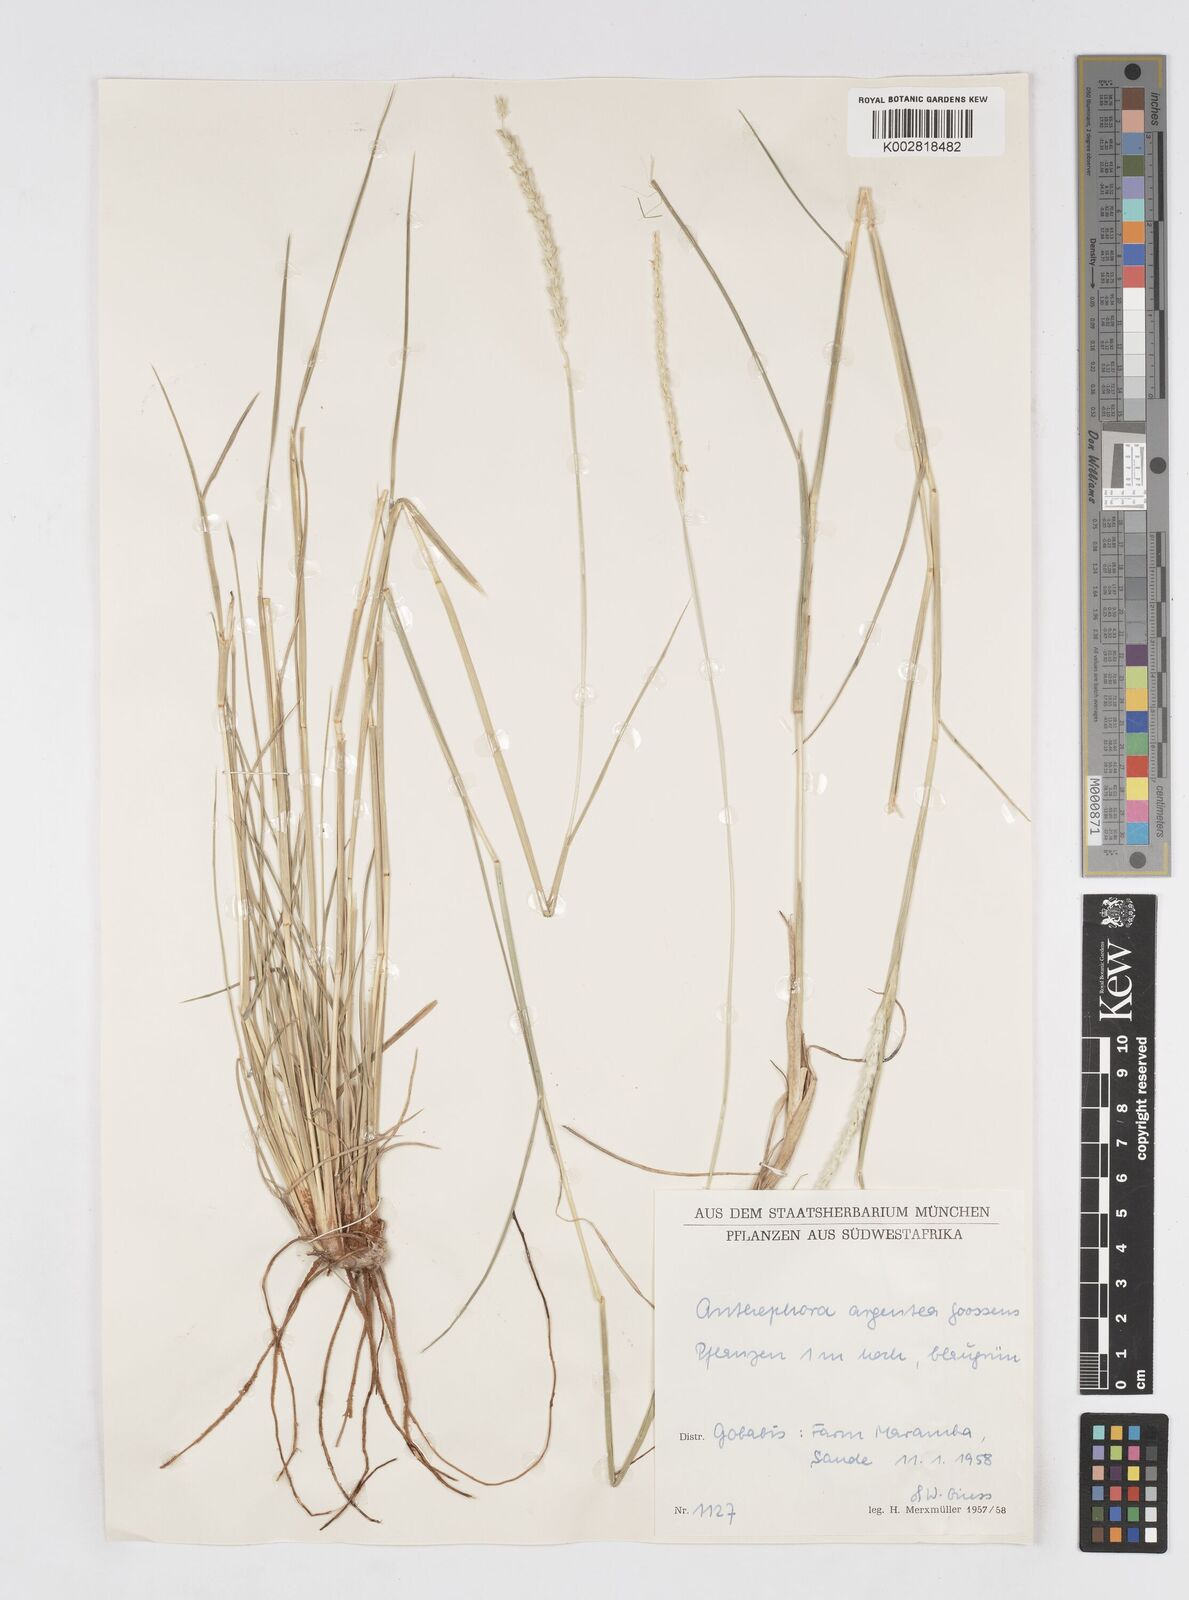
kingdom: Plantae
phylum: Tracheophyta
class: Liliopsida
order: Poales
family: Poaceae
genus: Anthephora
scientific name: Anthephora argentea
